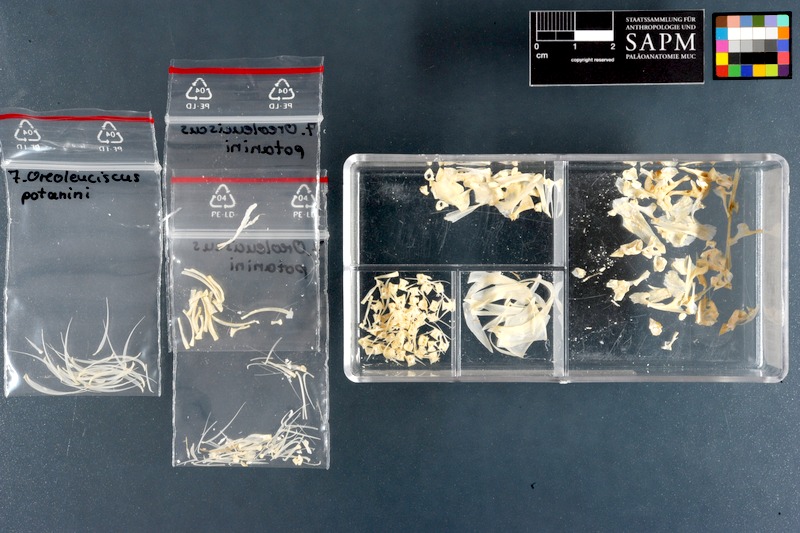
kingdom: Animalia
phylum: Chordata
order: Cypriniformes
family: Cyprinidae
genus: Oreoleuciscus
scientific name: Oreoleuciscus potanini
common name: Altai osman
